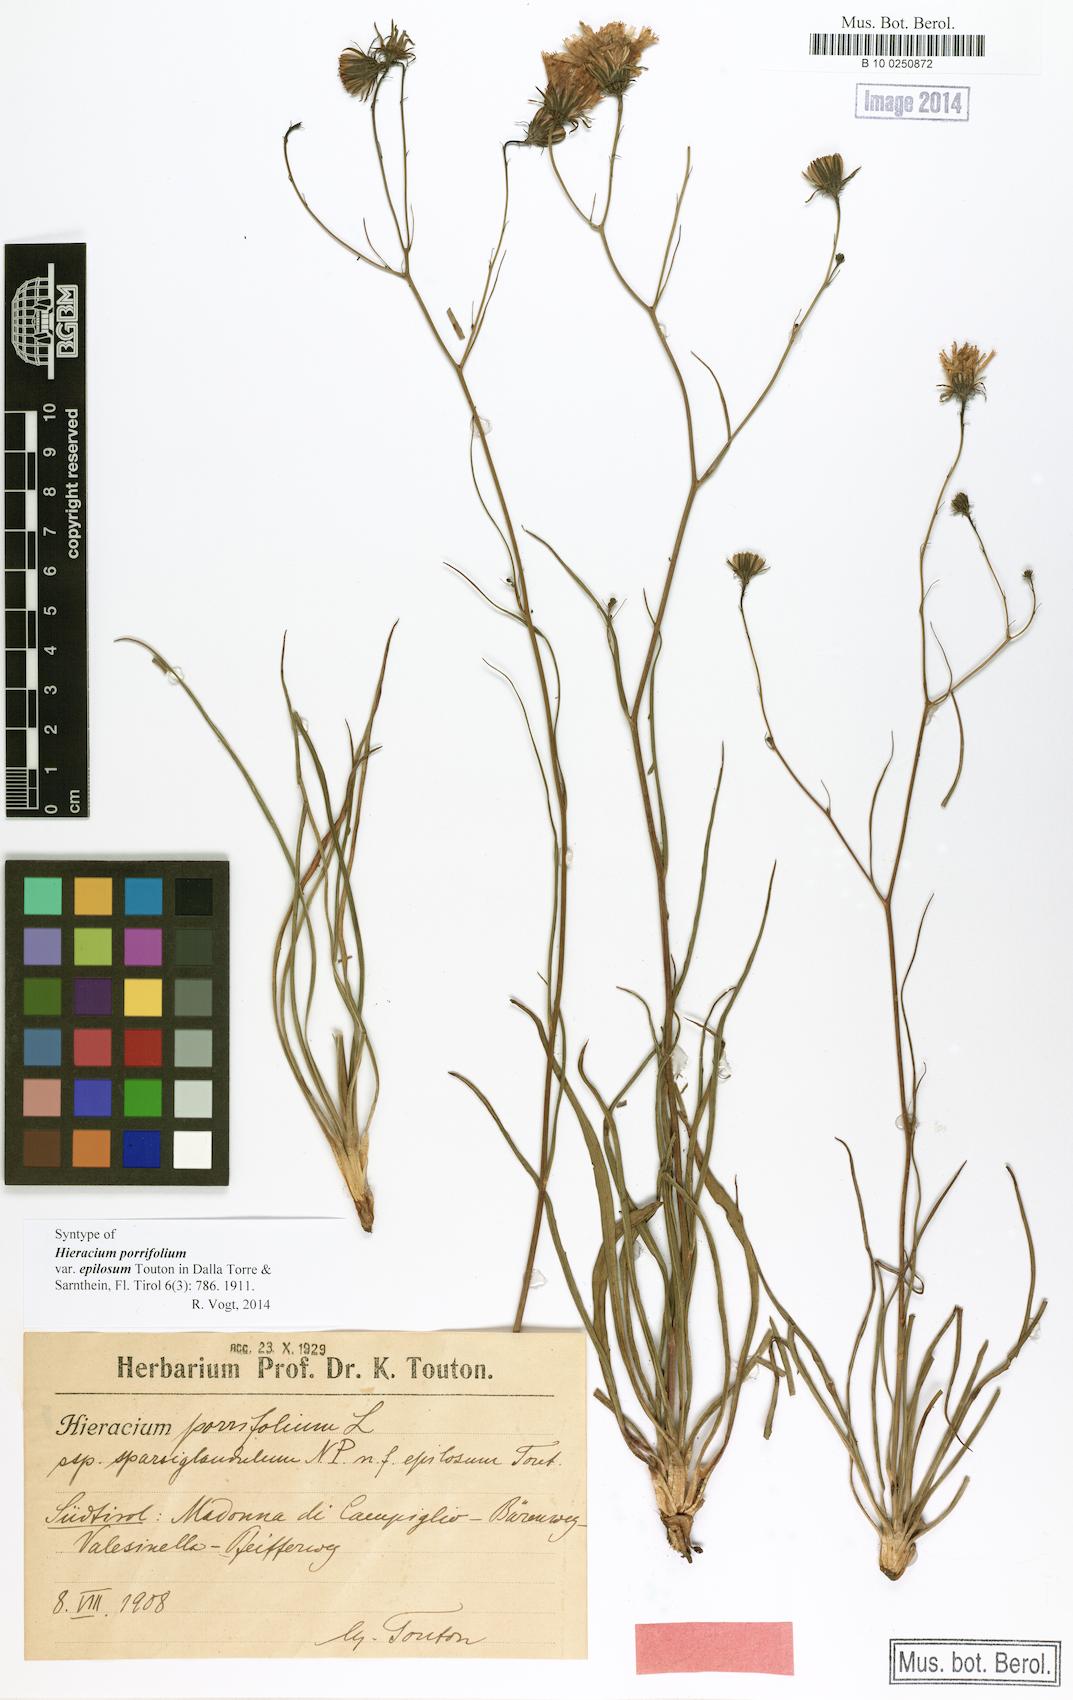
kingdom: Plantae
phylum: Tracheophyta
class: Magnoliopsida
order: Asterales
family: Asteraceae
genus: Hieracium
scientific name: Hieracium porrifolium
